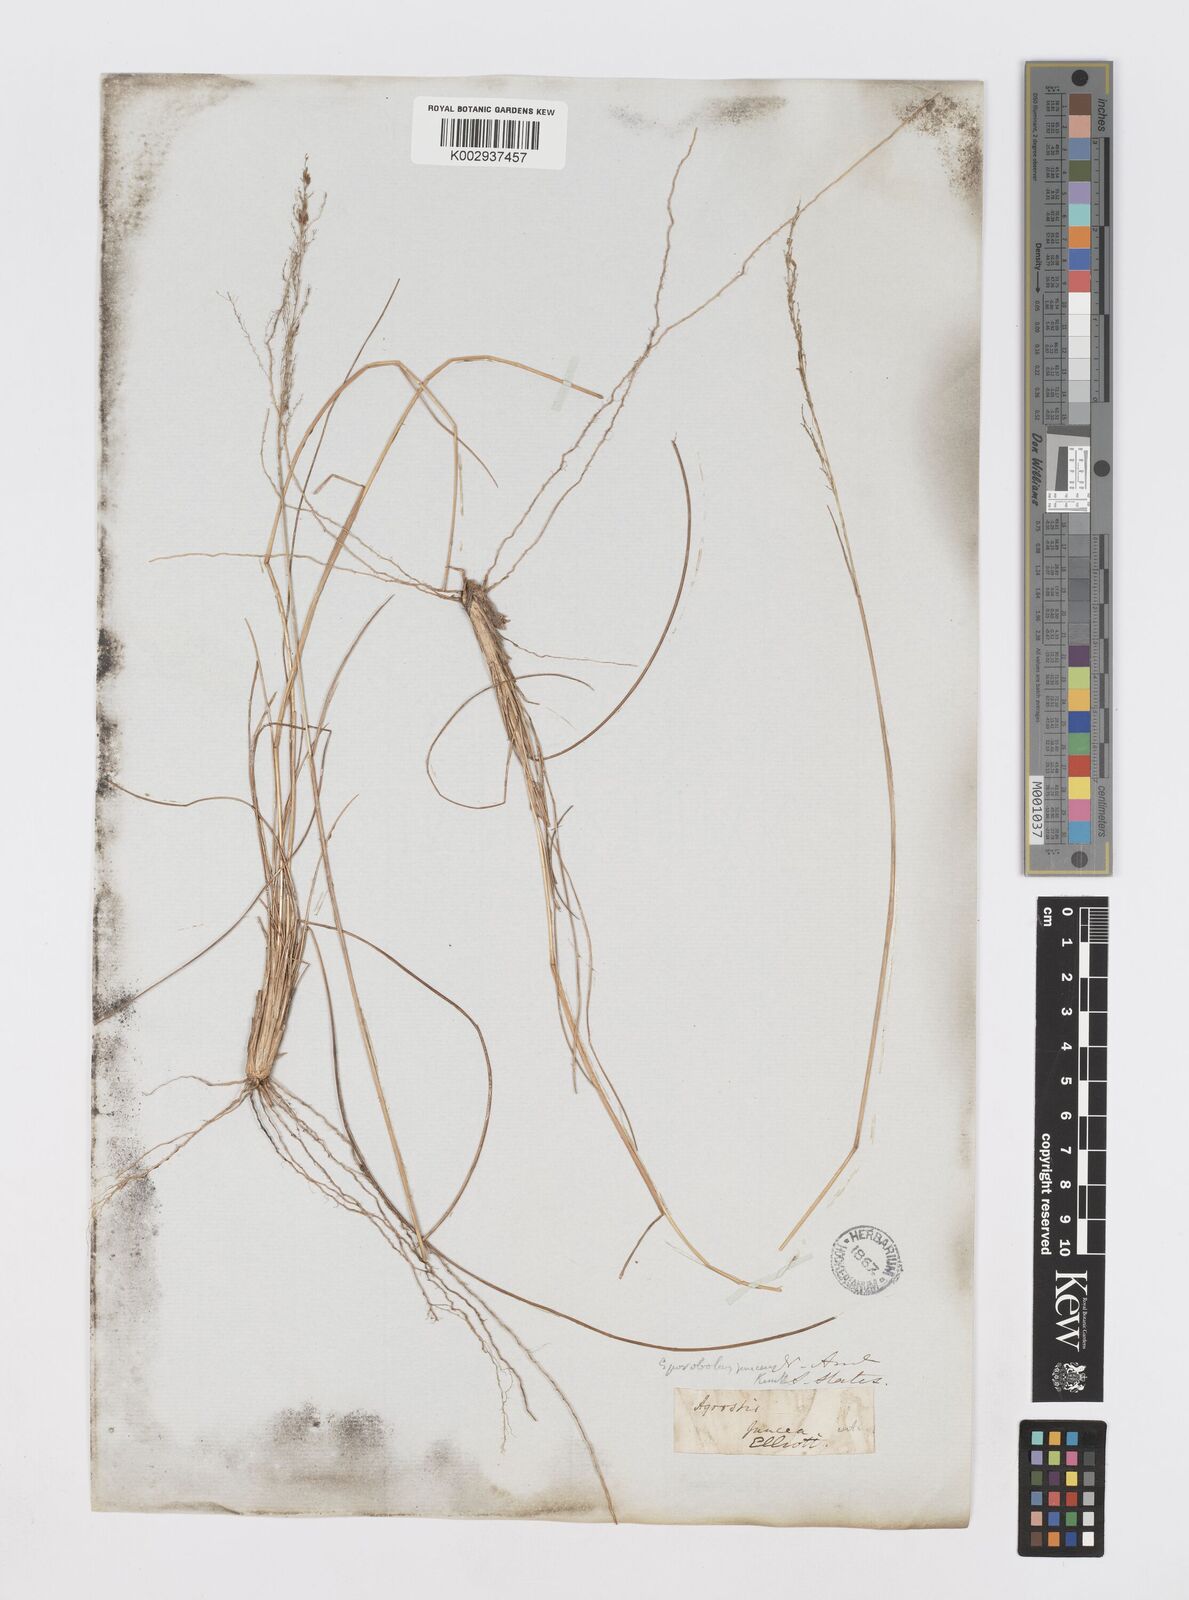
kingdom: Plantae
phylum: Tracheophyta
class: Liliopsida
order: Poales
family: Poaceae
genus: Sporobolus
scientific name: Sporobolus junceus
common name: Lizard grass
